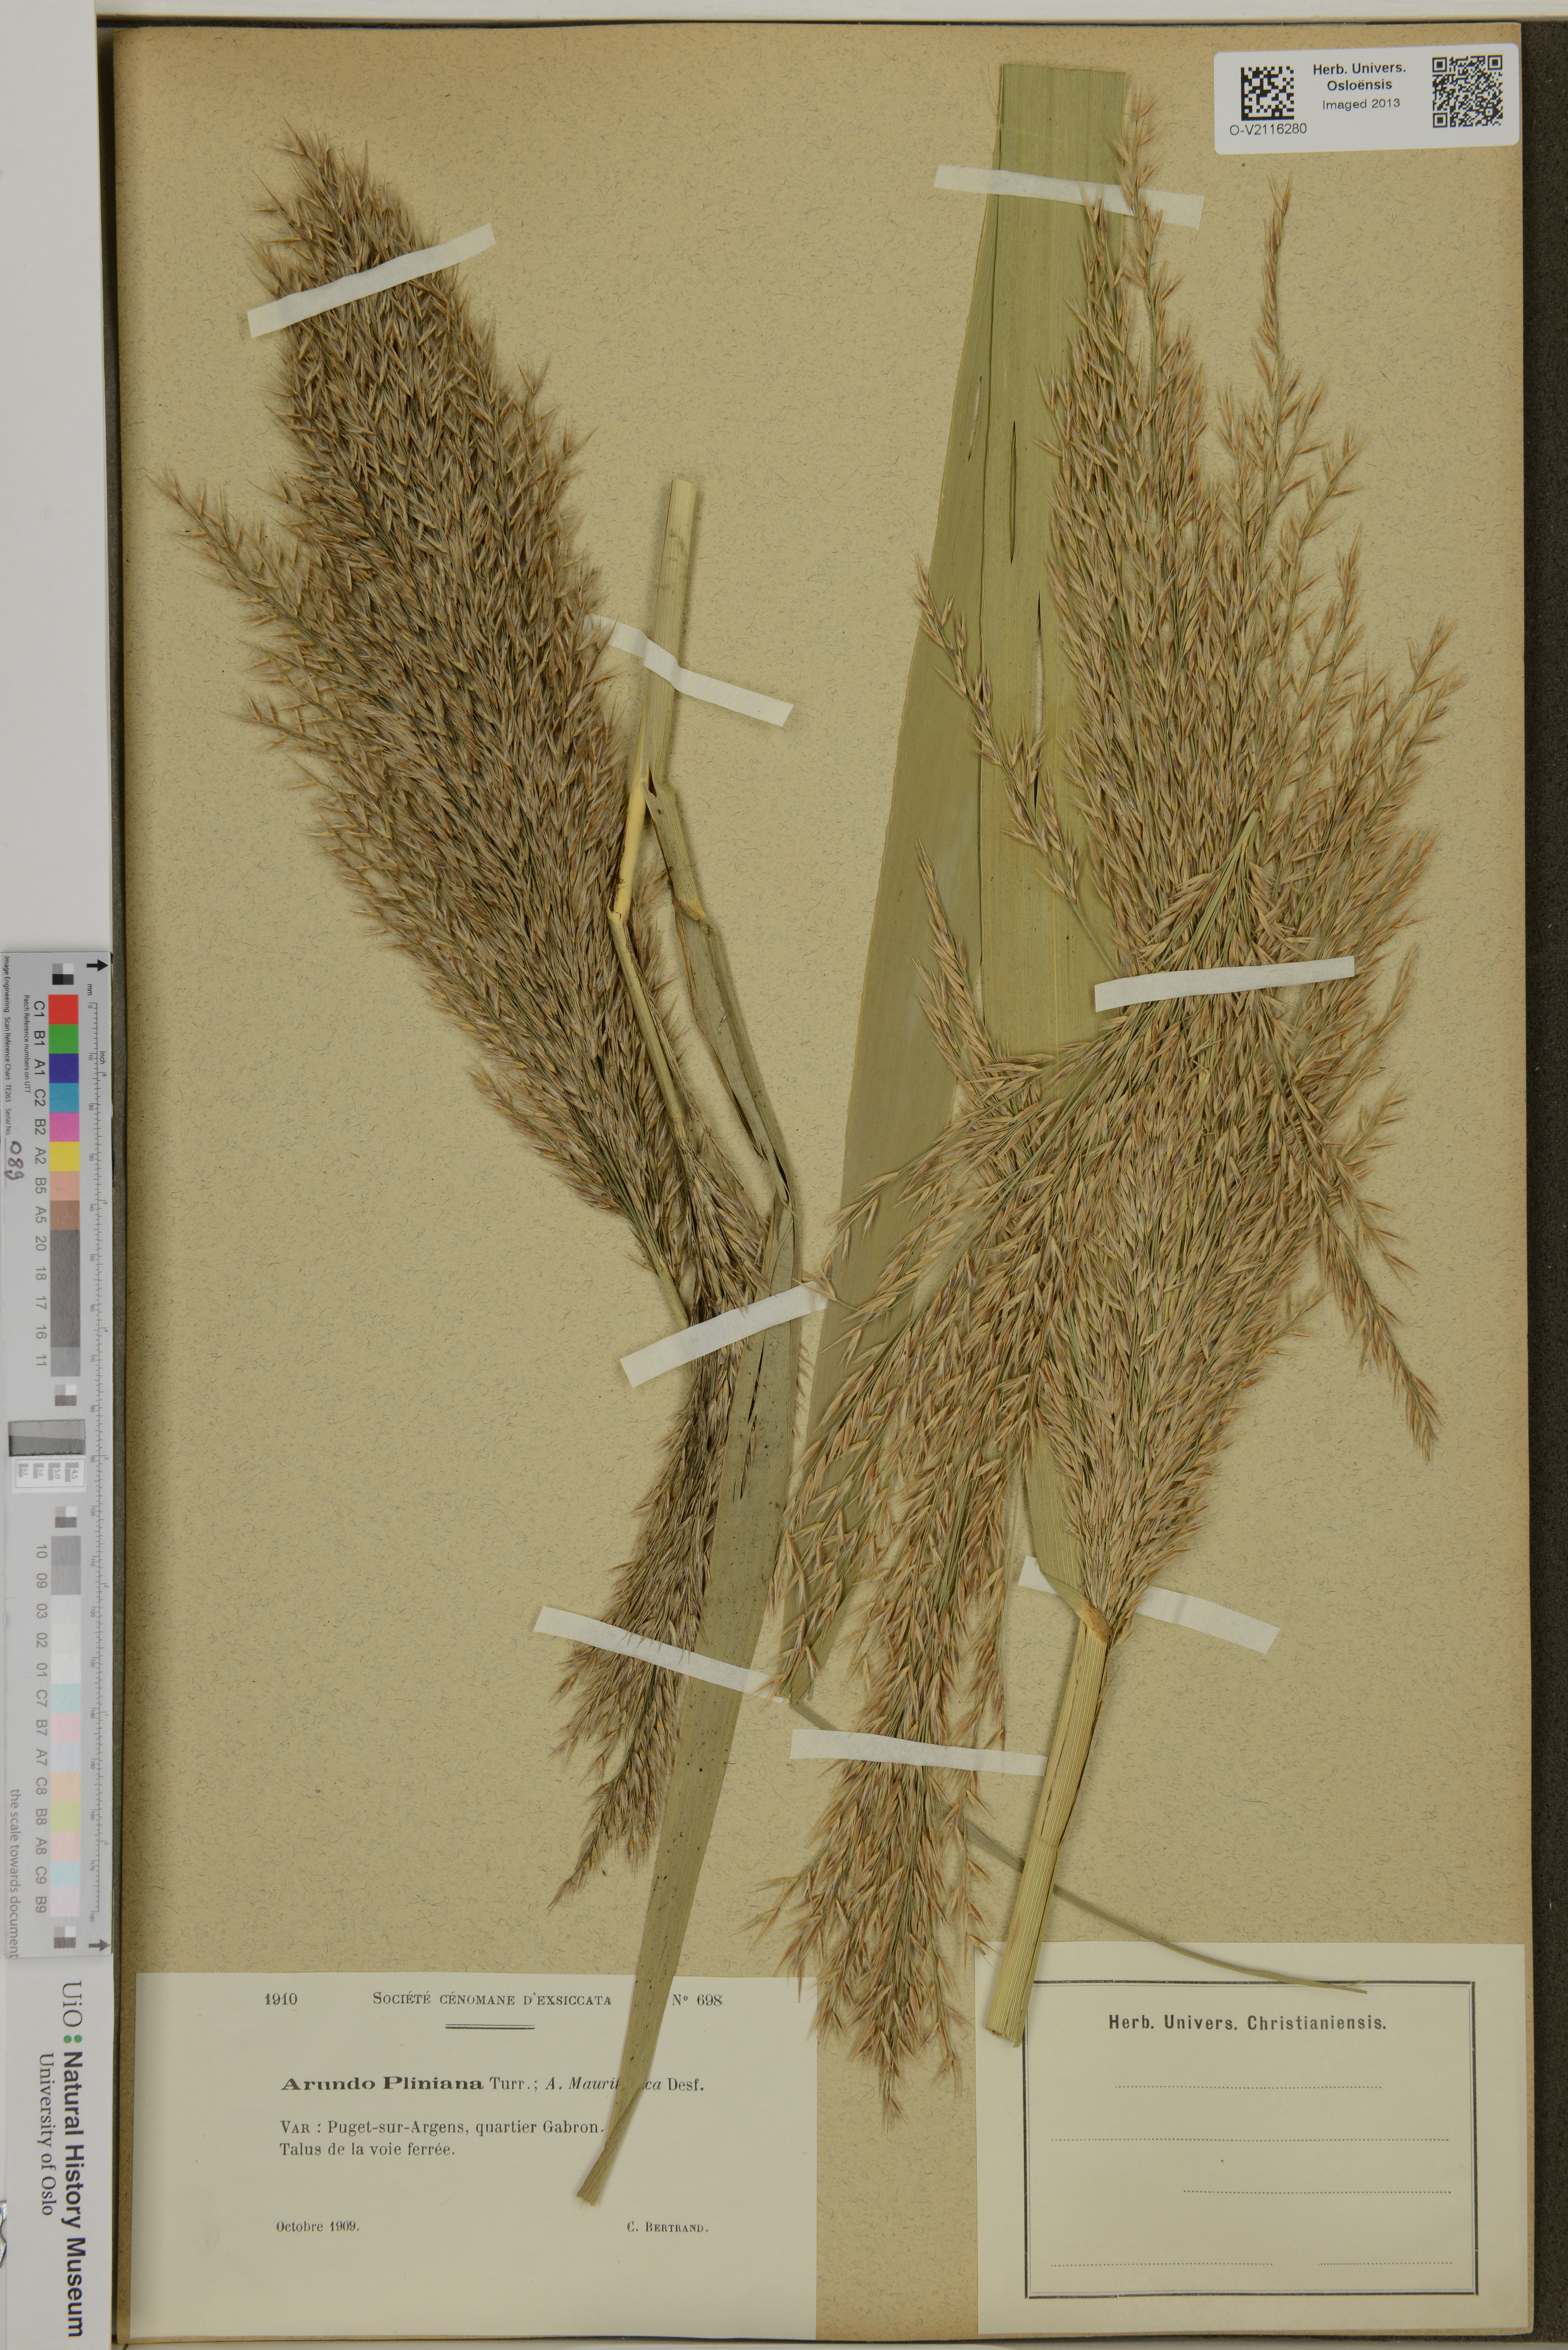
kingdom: Plantae
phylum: Tracheophyta
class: Liliopsida
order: Poales
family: Poaceae
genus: Arundo
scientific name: Arundo plinii
